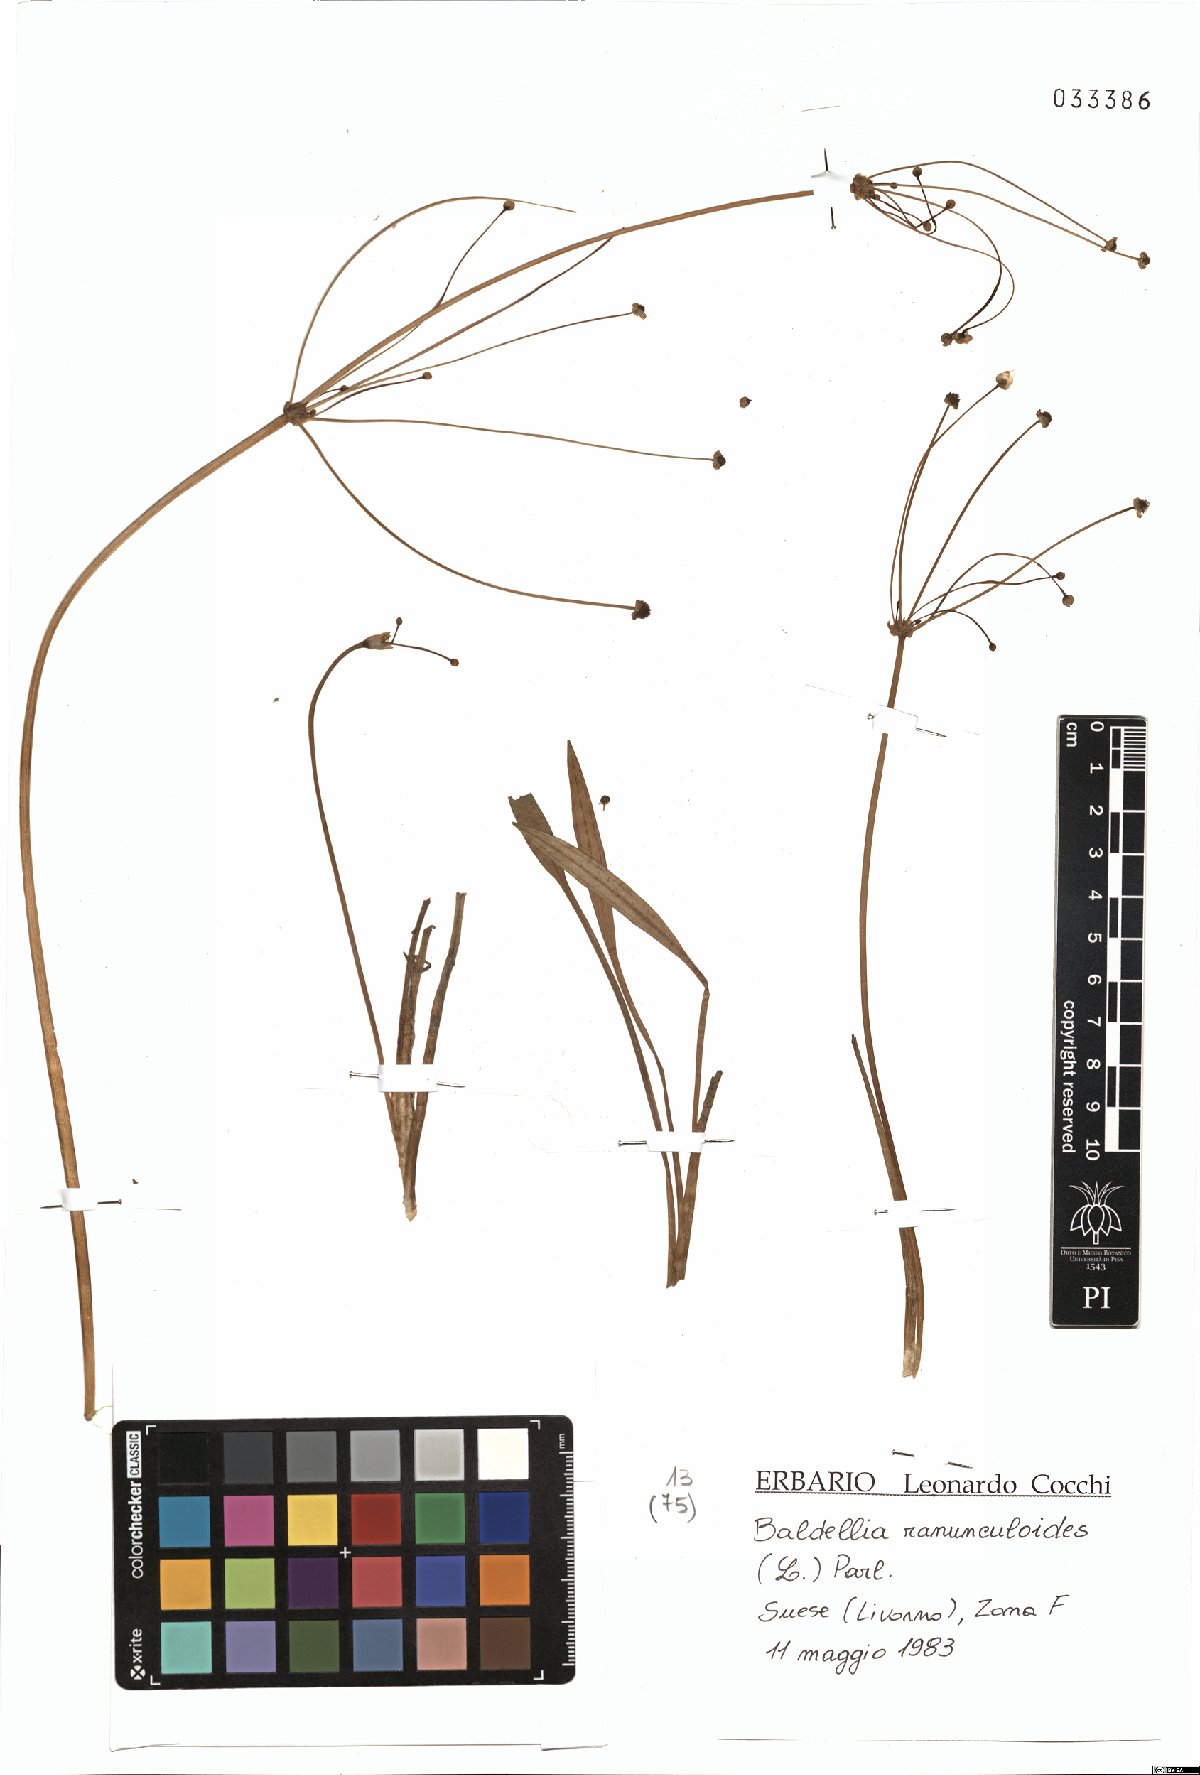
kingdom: Plantae
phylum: Tracheophyta
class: Liliopsida
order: Alismatales
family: Alismataceae
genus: Baldellia
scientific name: Baldellia ranunculoides
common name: Lesser water-plantain
